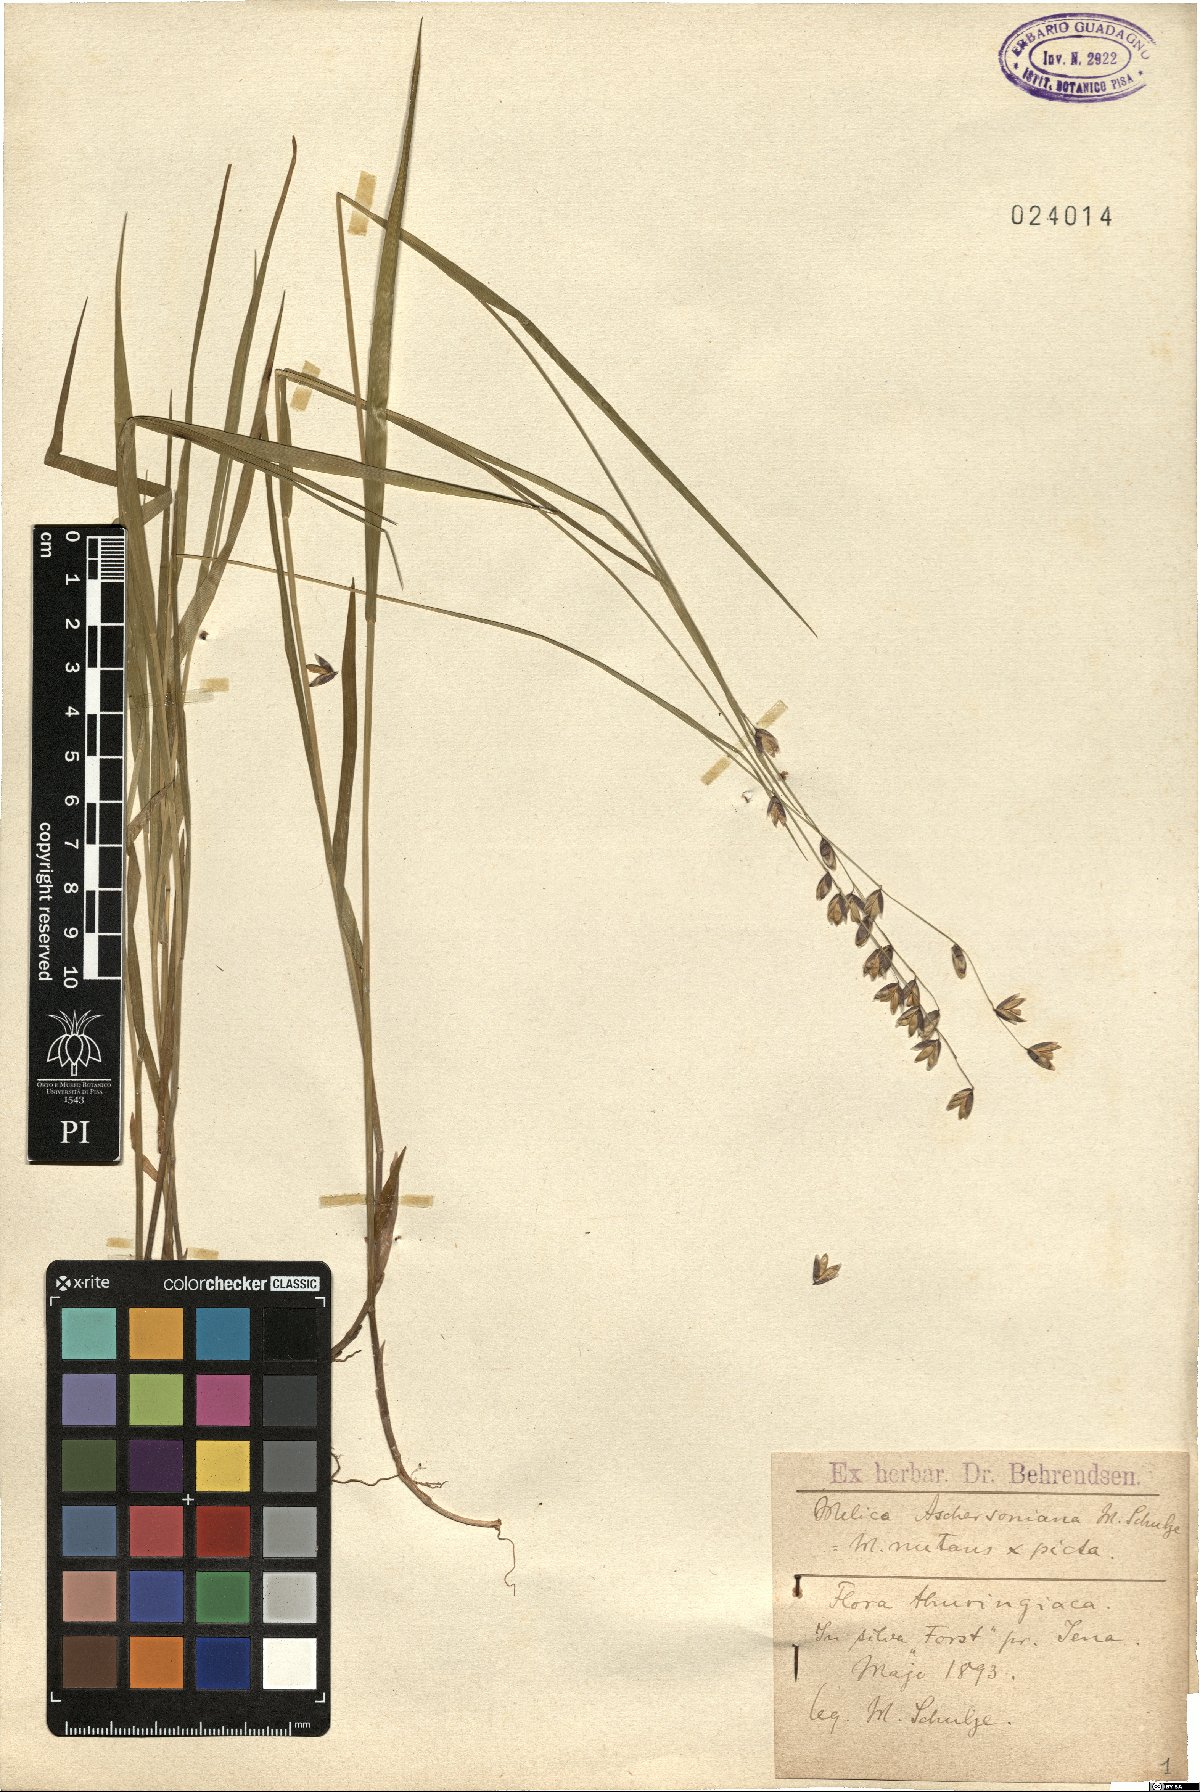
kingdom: Plantae
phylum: Tracheophyta
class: Liliopsida
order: Poales
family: Poaceae
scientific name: Poaceae
